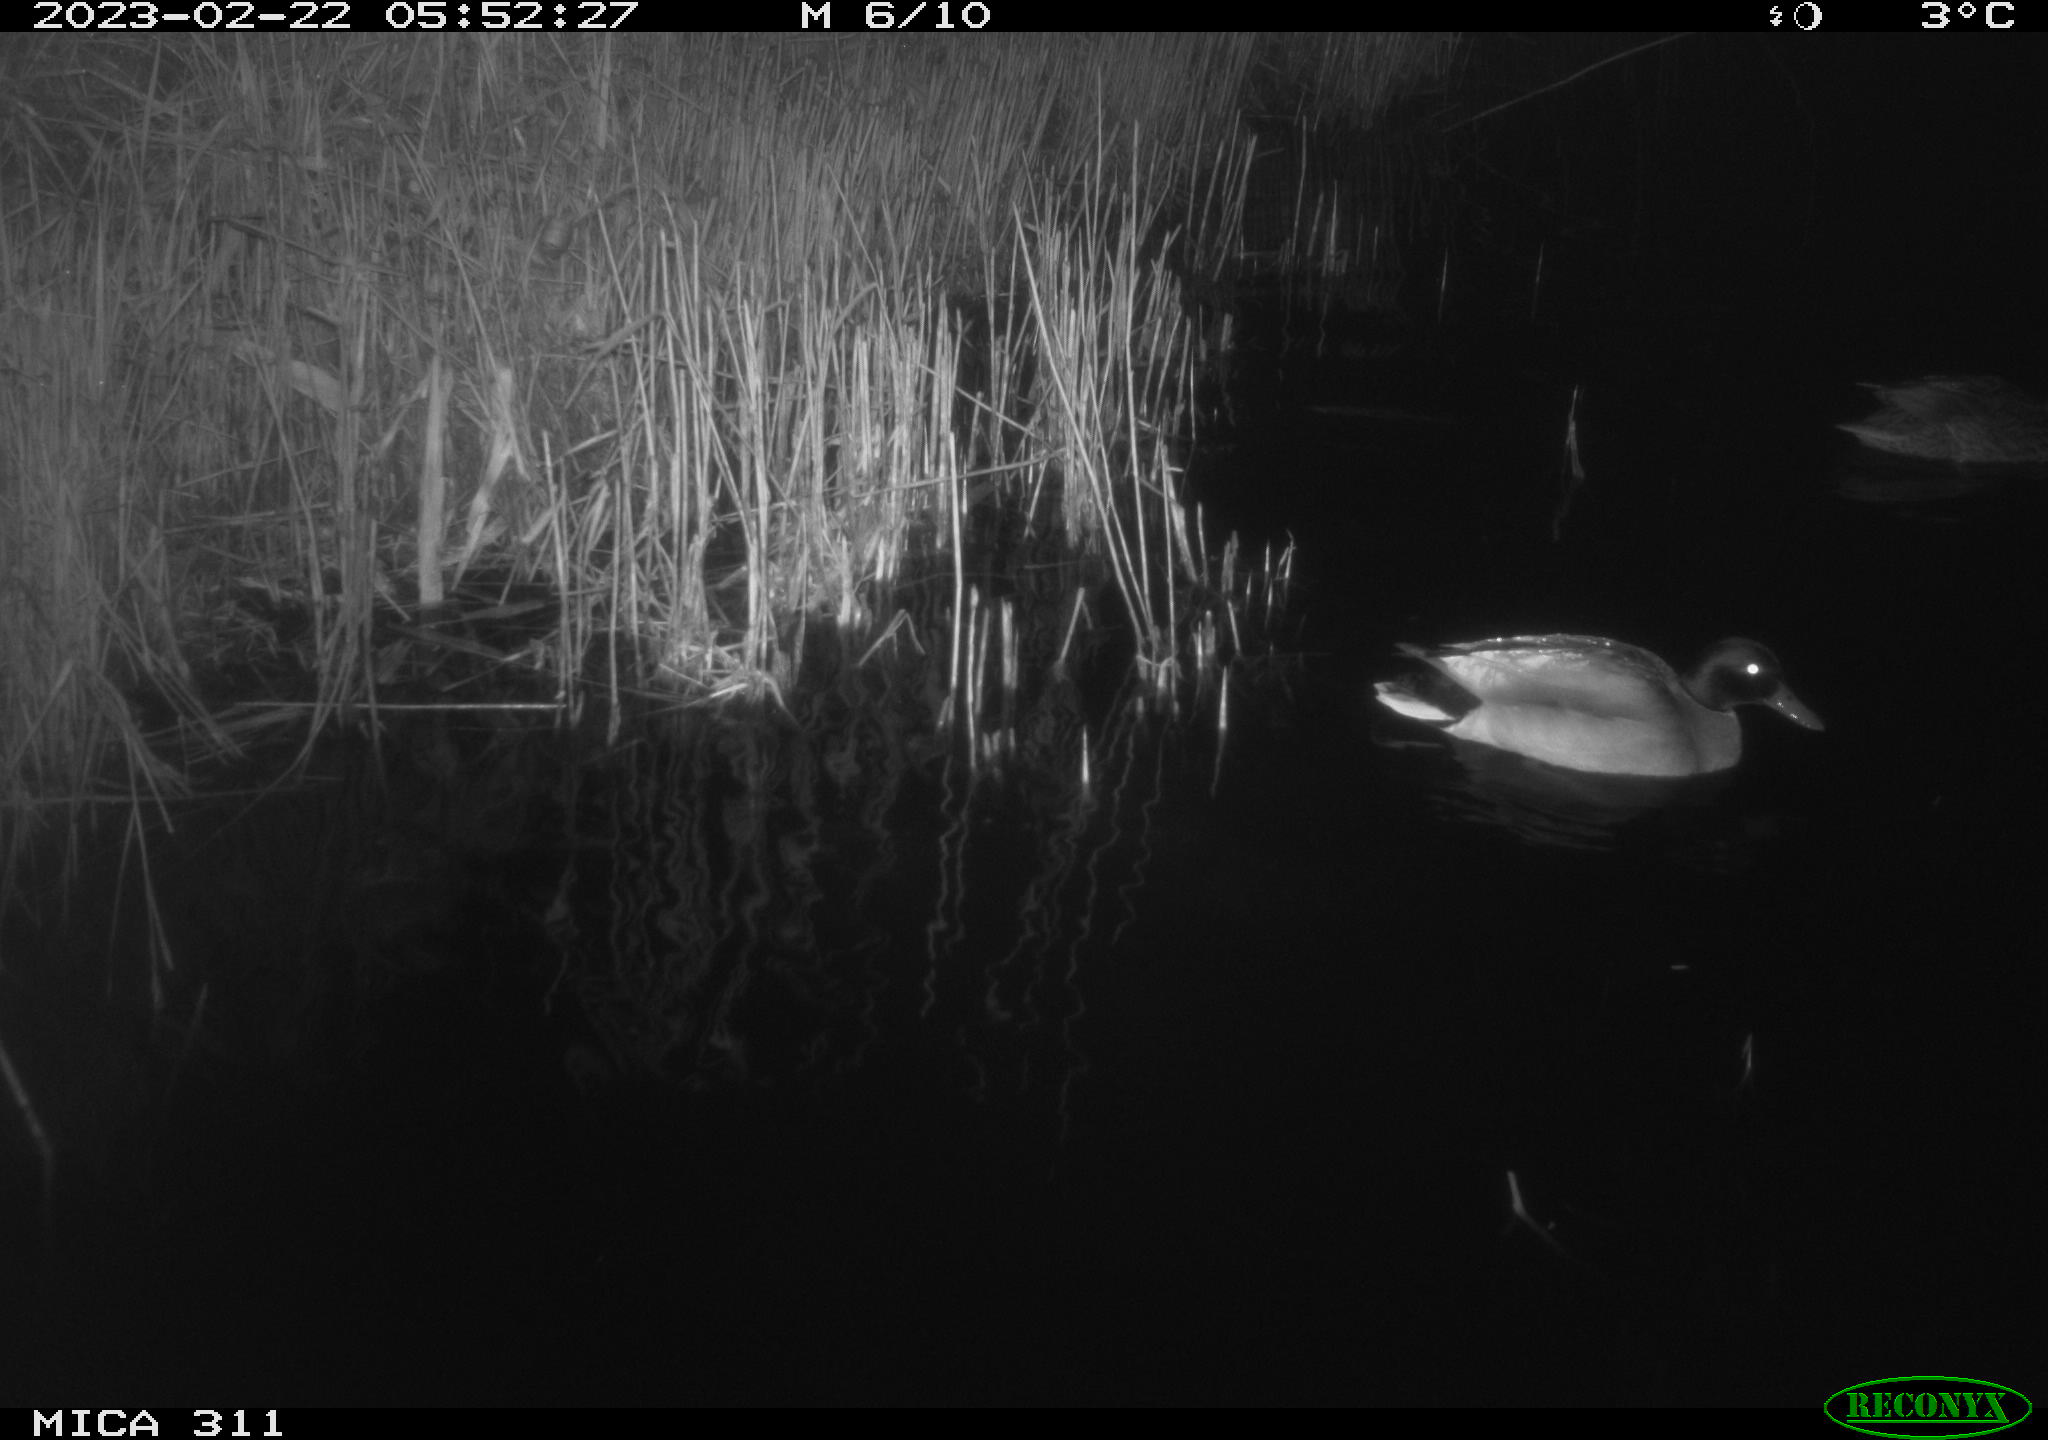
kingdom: Animalia
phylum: Chordata
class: Aves
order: Anseriformes
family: Anatidae
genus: Anas
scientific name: Anas
